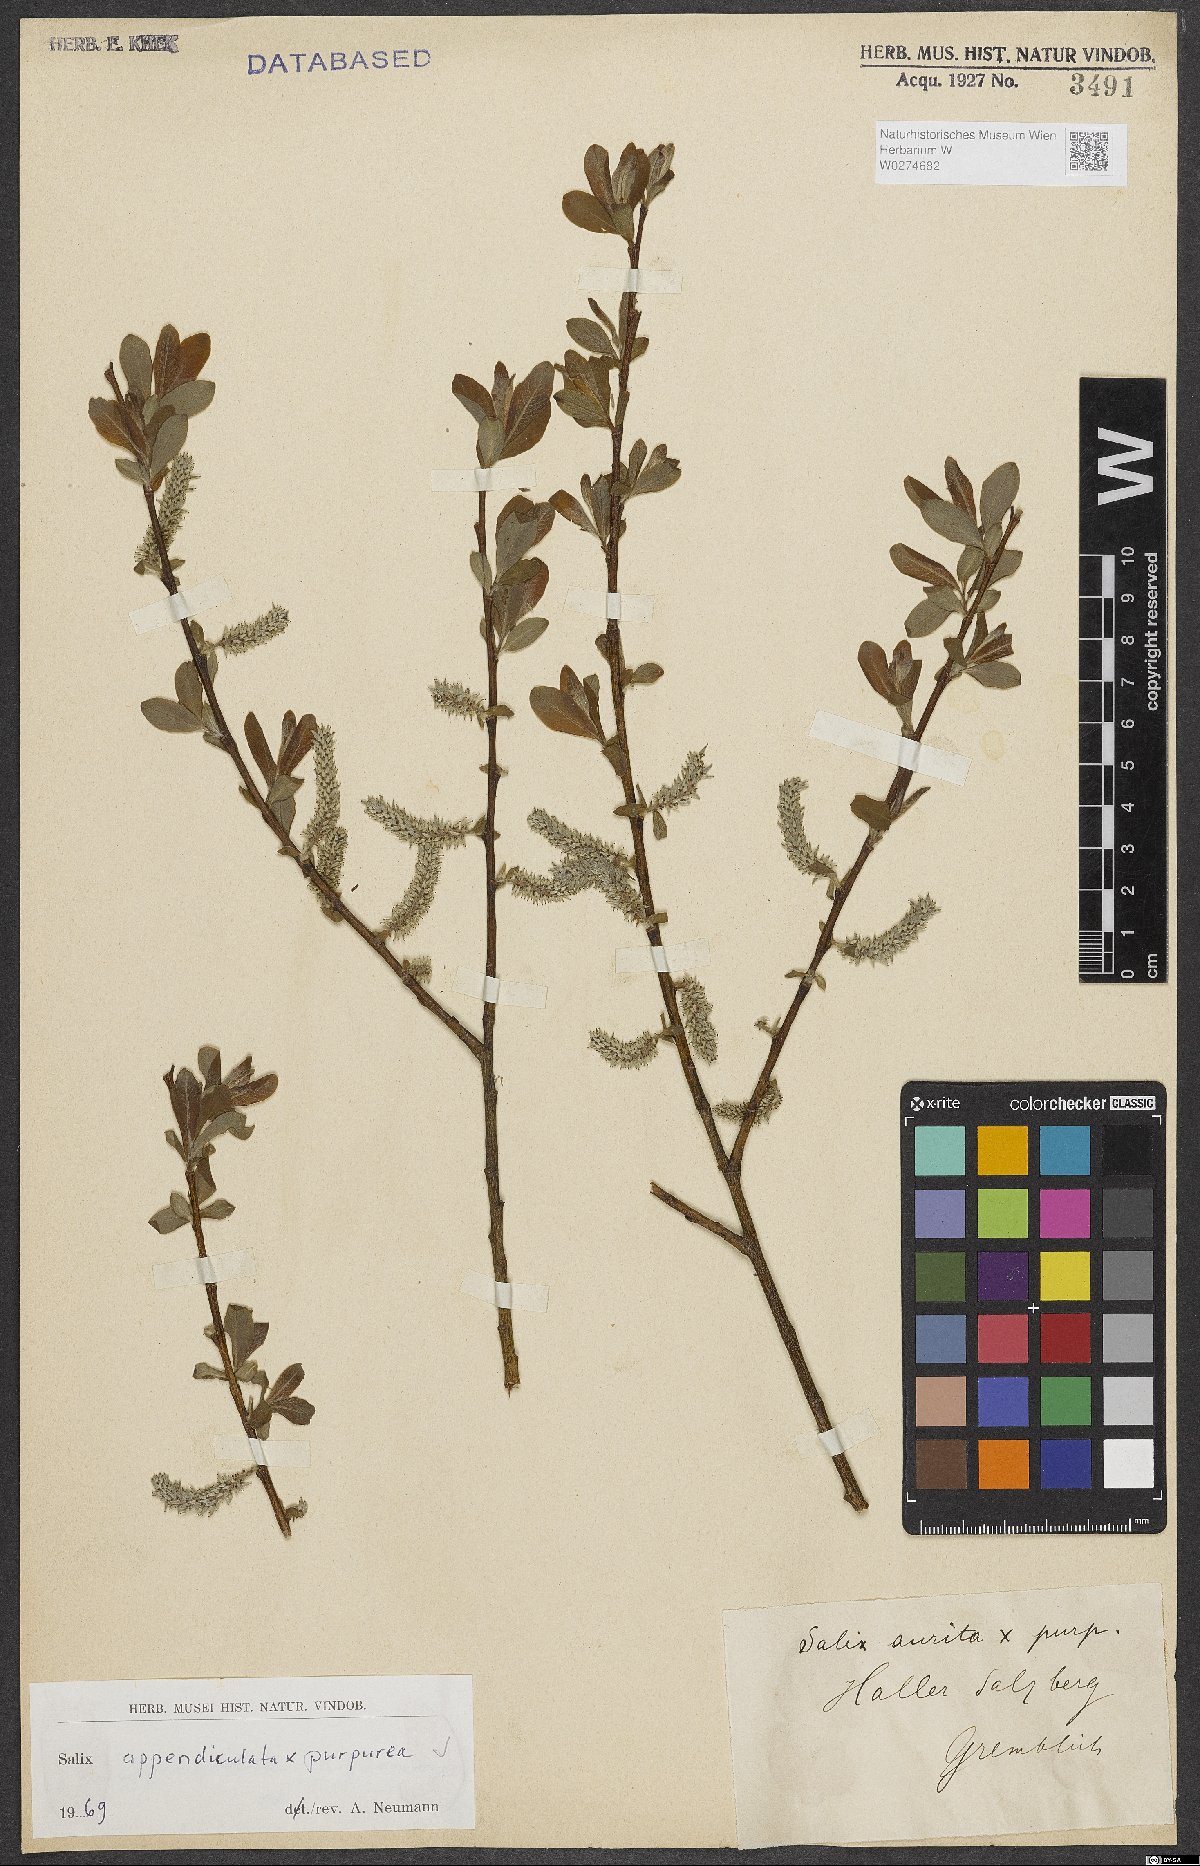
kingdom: Plantae
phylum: Tracheophyta
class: Magnoliopsida
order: Malpighiales
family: Salicaceae
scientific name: Salicaceae
